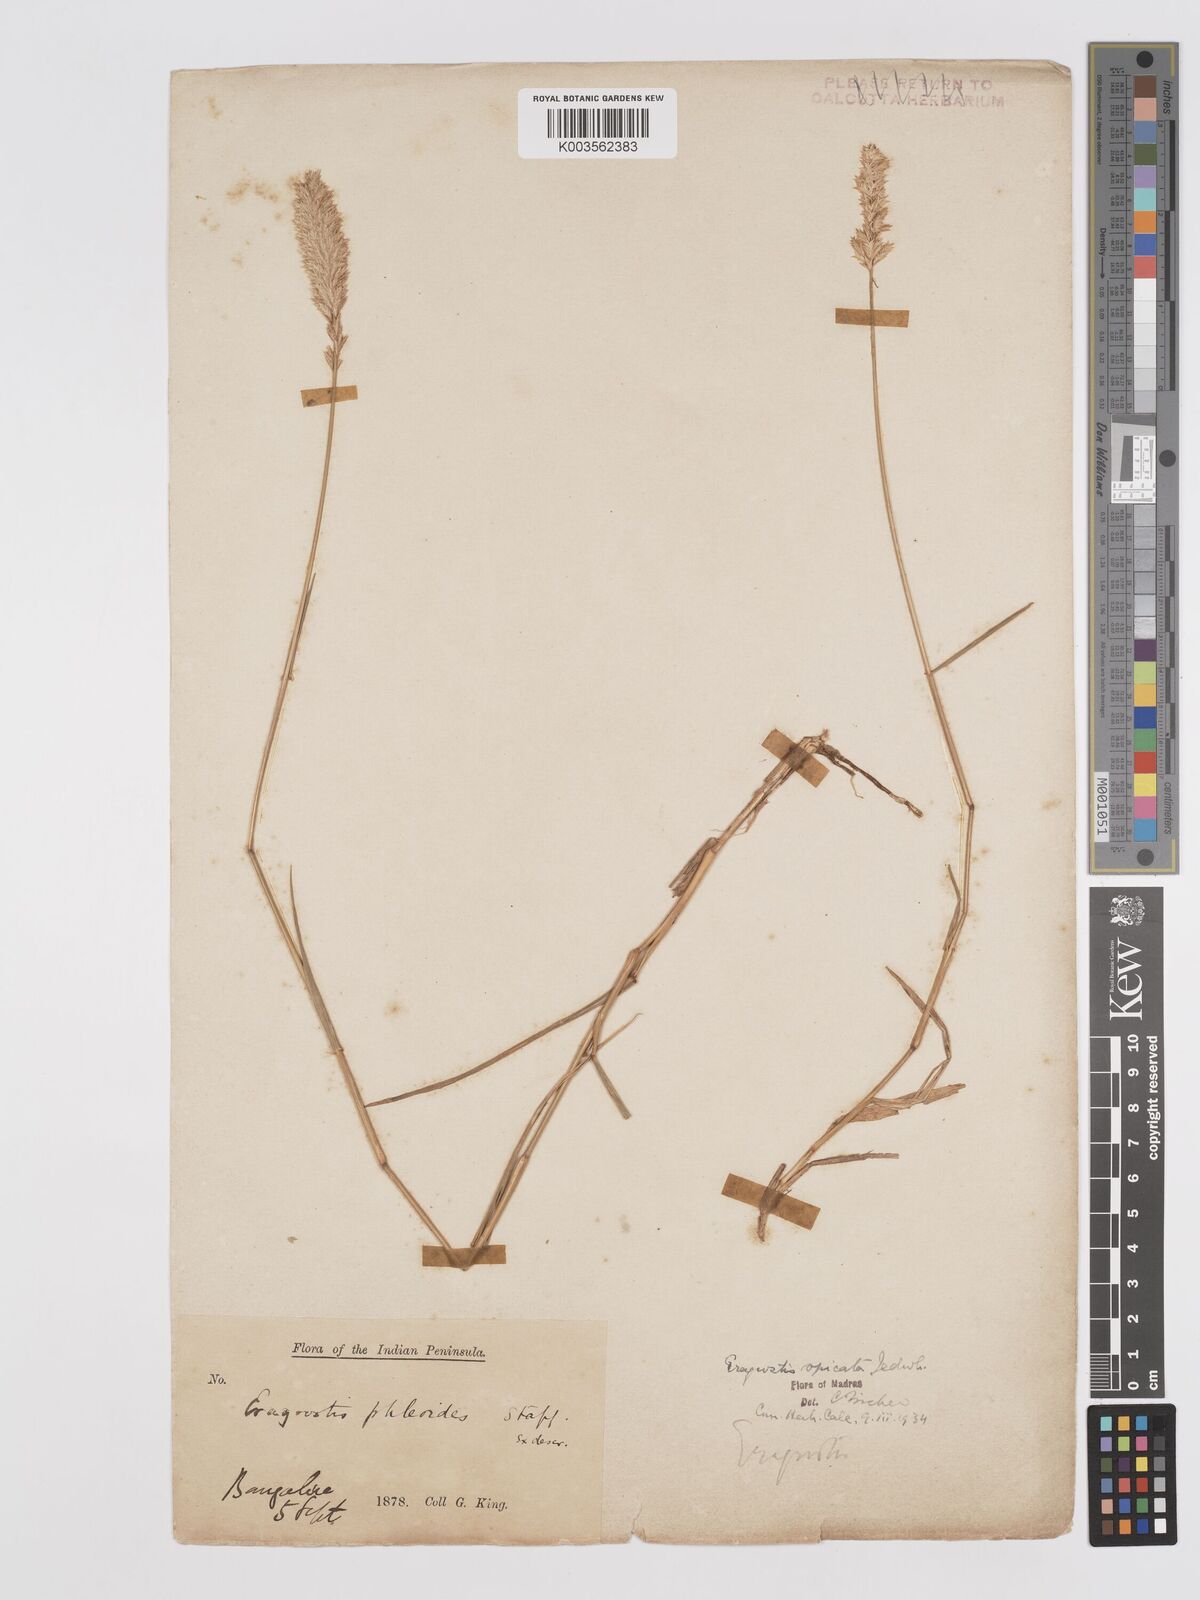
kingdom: Plantae
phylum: Tracheophyta
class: Liliopsida
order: Poales
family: Poaceae
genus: Eragrostis
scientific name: Eragrostis deccanensis
